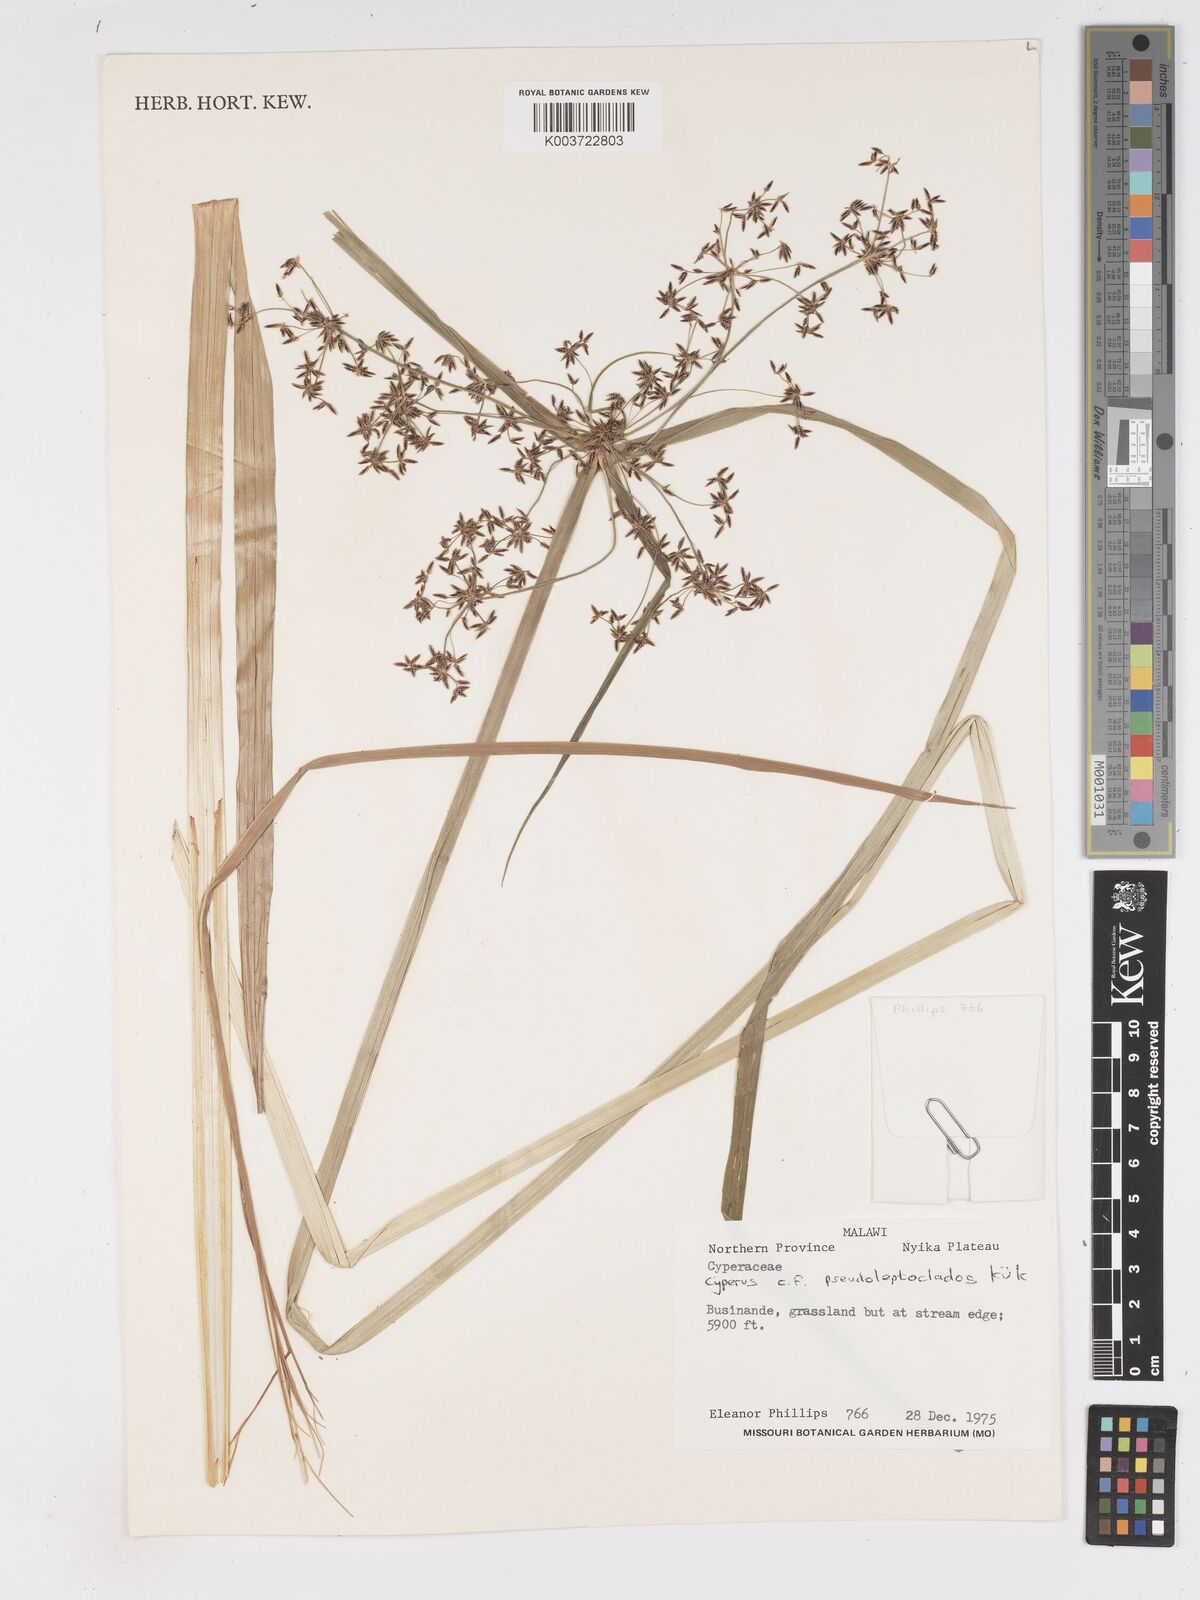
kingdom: Plantae
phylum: Tracheophyta
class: Liliopsida
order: Poales
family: Cyperaceae
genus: Cyperus
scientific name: Cyperus glaucophyllus
